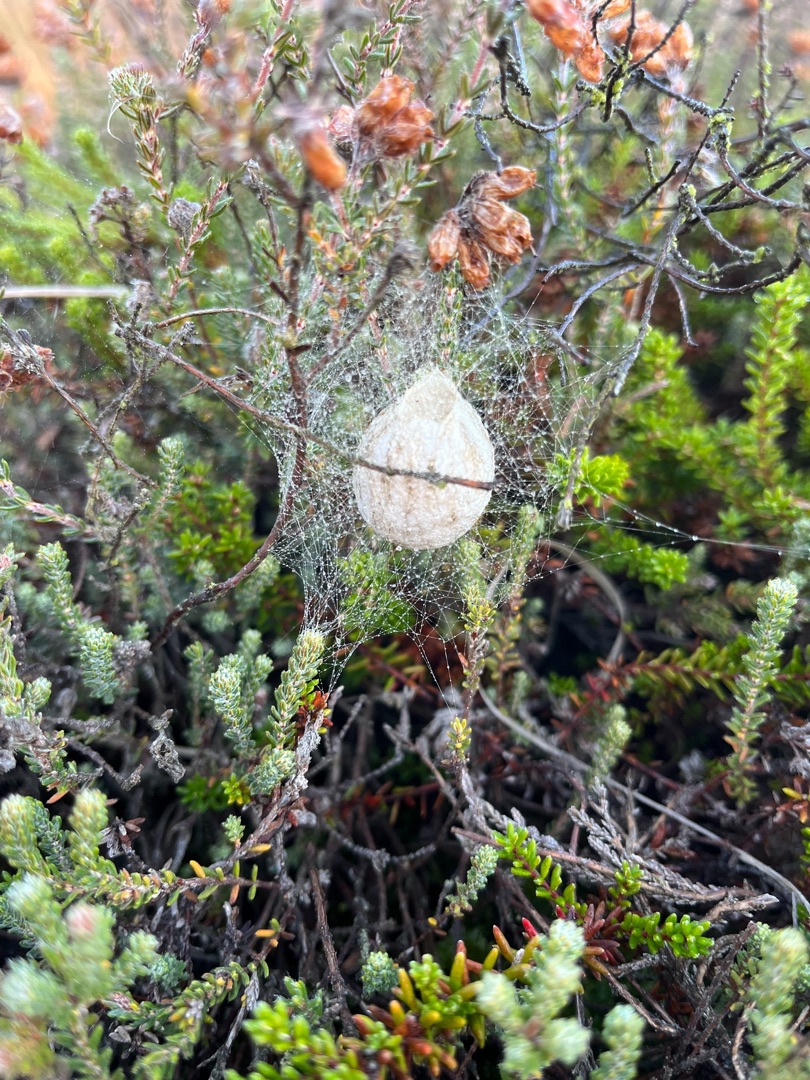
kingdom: Animalia
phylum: Arthropoda
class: Arachnida
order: Araneae
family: Araneidae
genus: Argiope
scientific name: Argiope bruennichi
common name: Hvepseedderkop
